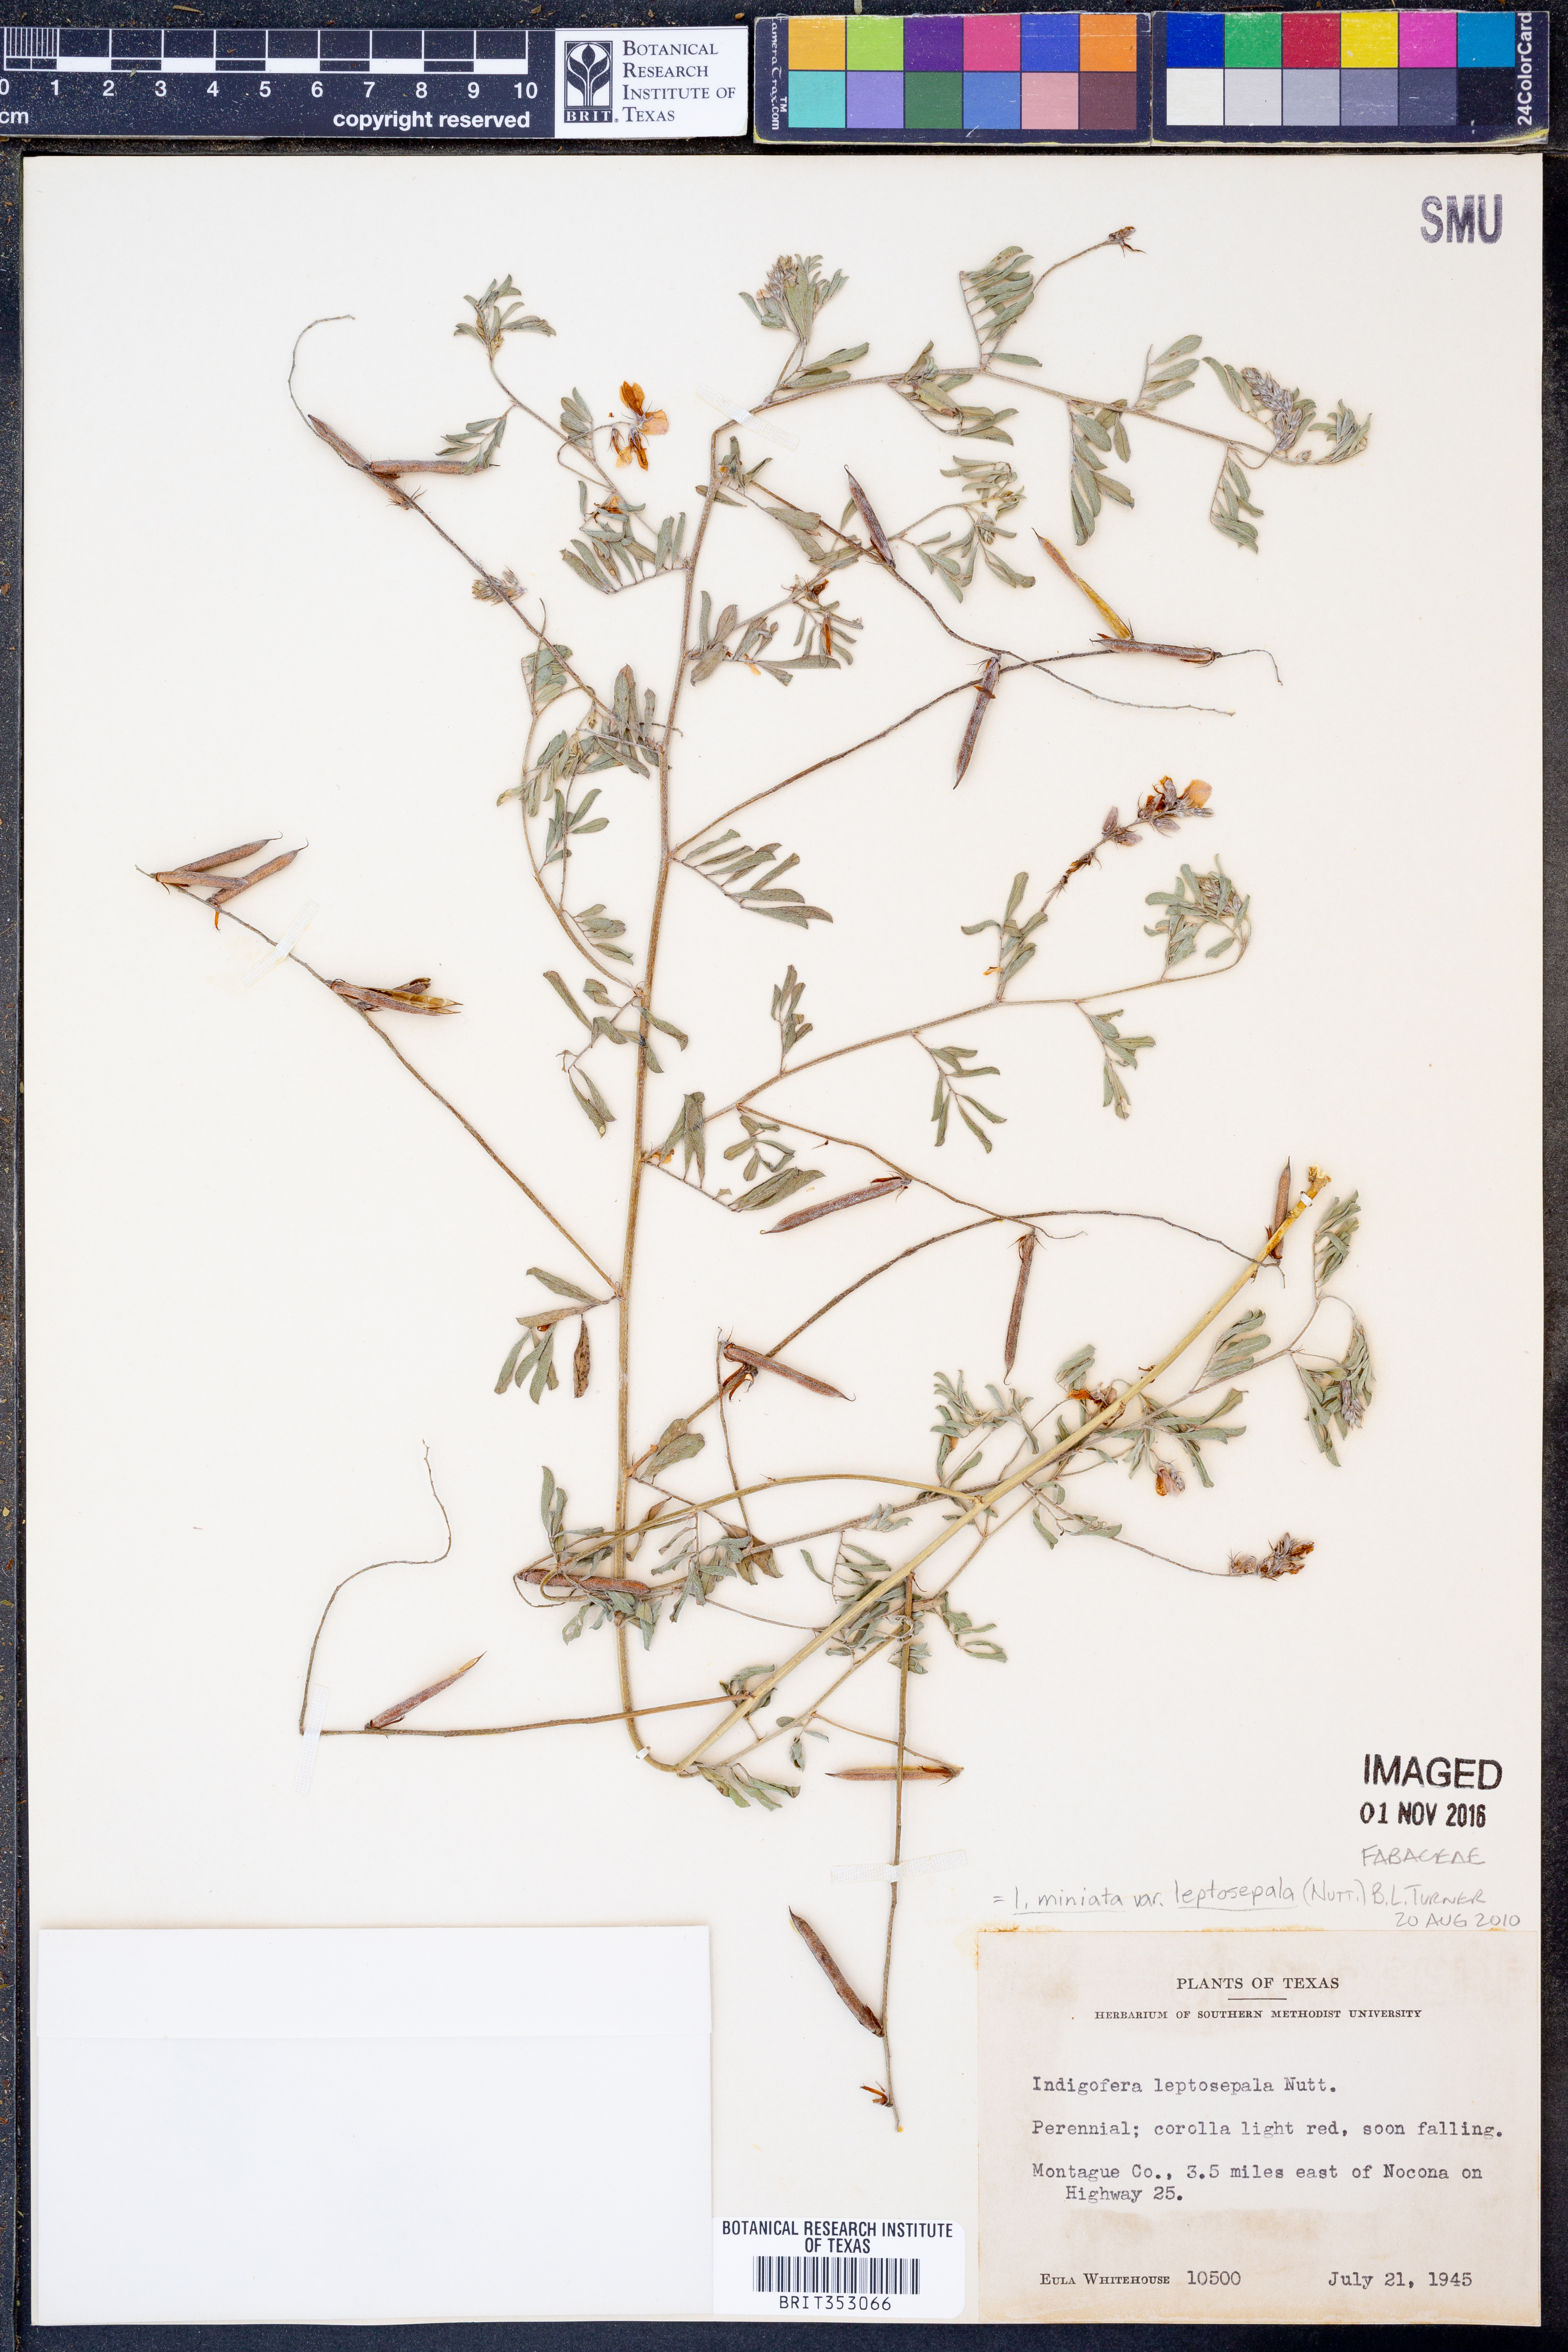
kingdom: Plantae
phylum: Tracheophyta
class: Magnoliopsida
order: Fabales
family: Fabaceae
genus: Indigofera
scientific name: Indigofera miniata
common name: Coast indigo
